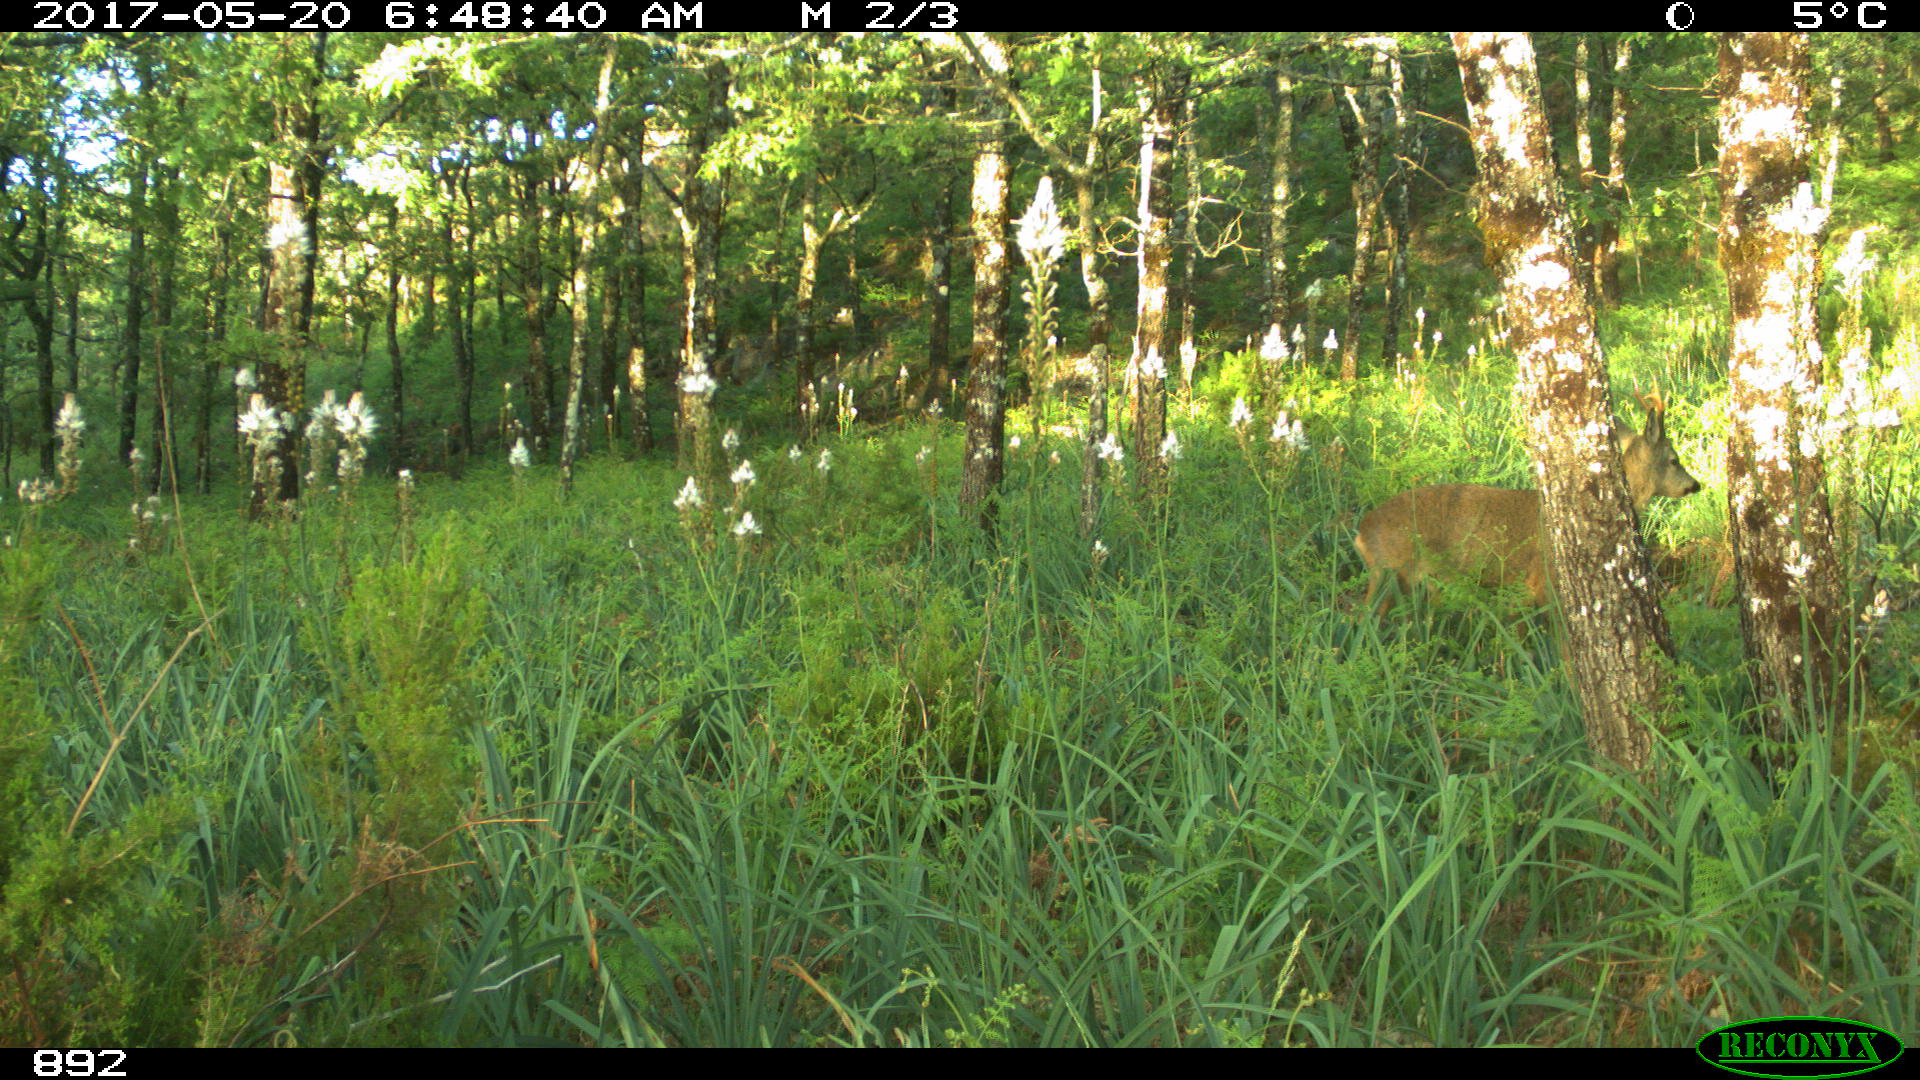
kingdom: Animalia
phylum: Chordata
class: Mammalia
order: Artiodactyla
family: Cervidae
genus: Capreolus
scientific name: Capreolus capreolus
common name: Western roe deer
